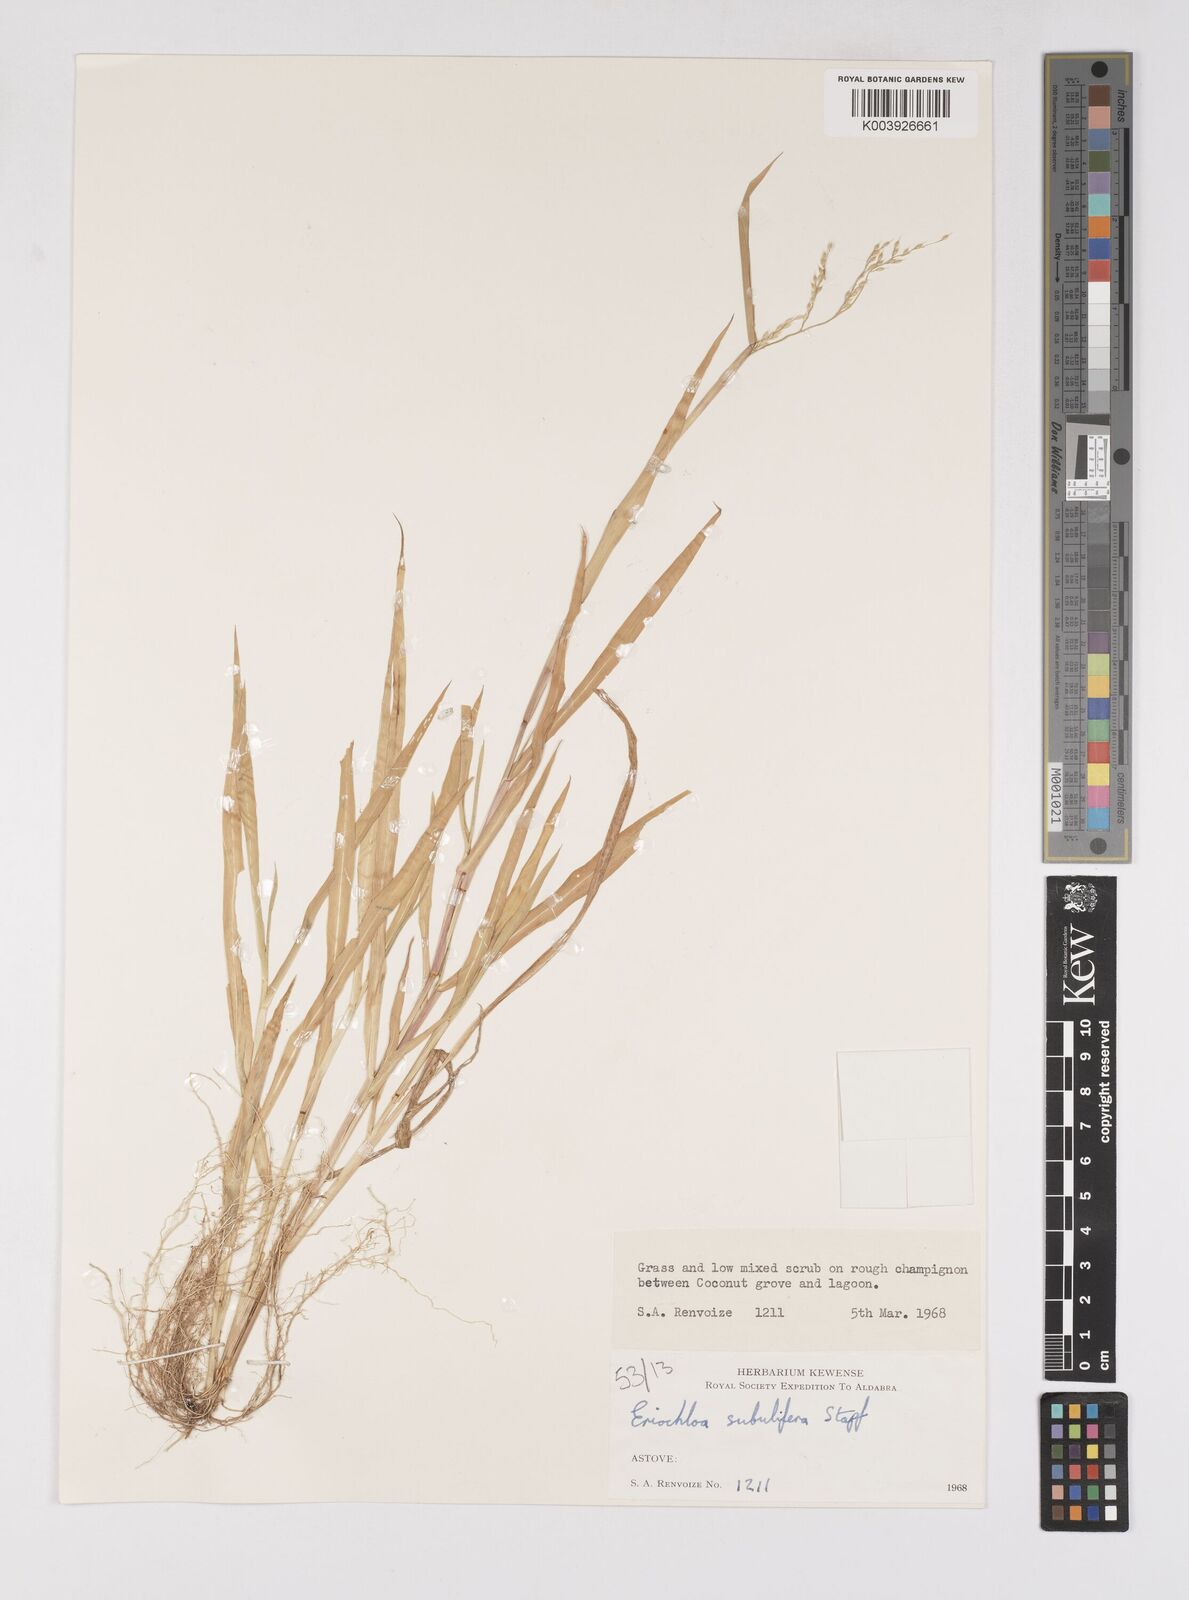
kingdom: Plantae
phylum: Tracheophyta
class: Liliopsida
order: Poales
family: Poaceae
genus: Eriochloa
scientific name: Eriochloa subulifera
